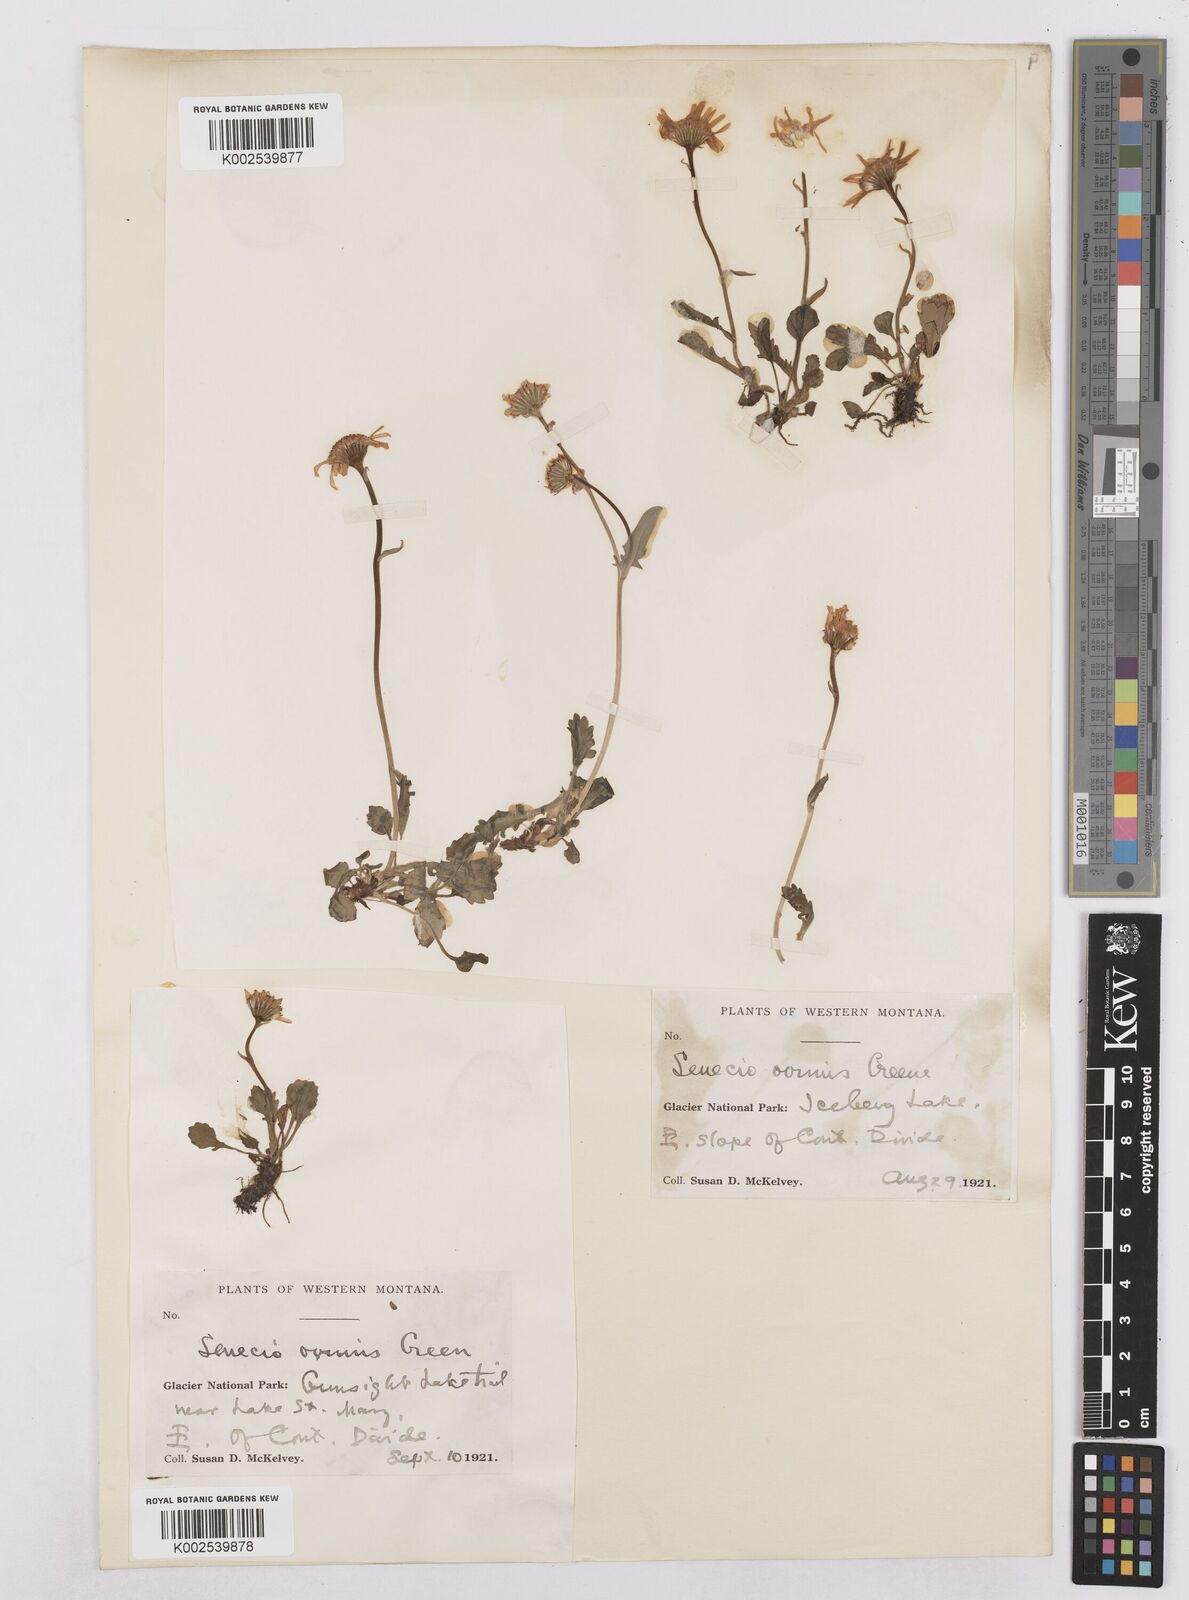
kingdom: Plantae
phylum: Tracheophyta
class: Magnoliopsida
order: Asterales
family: Asteraceae
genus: Packera
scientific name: Packera cymbalaria
